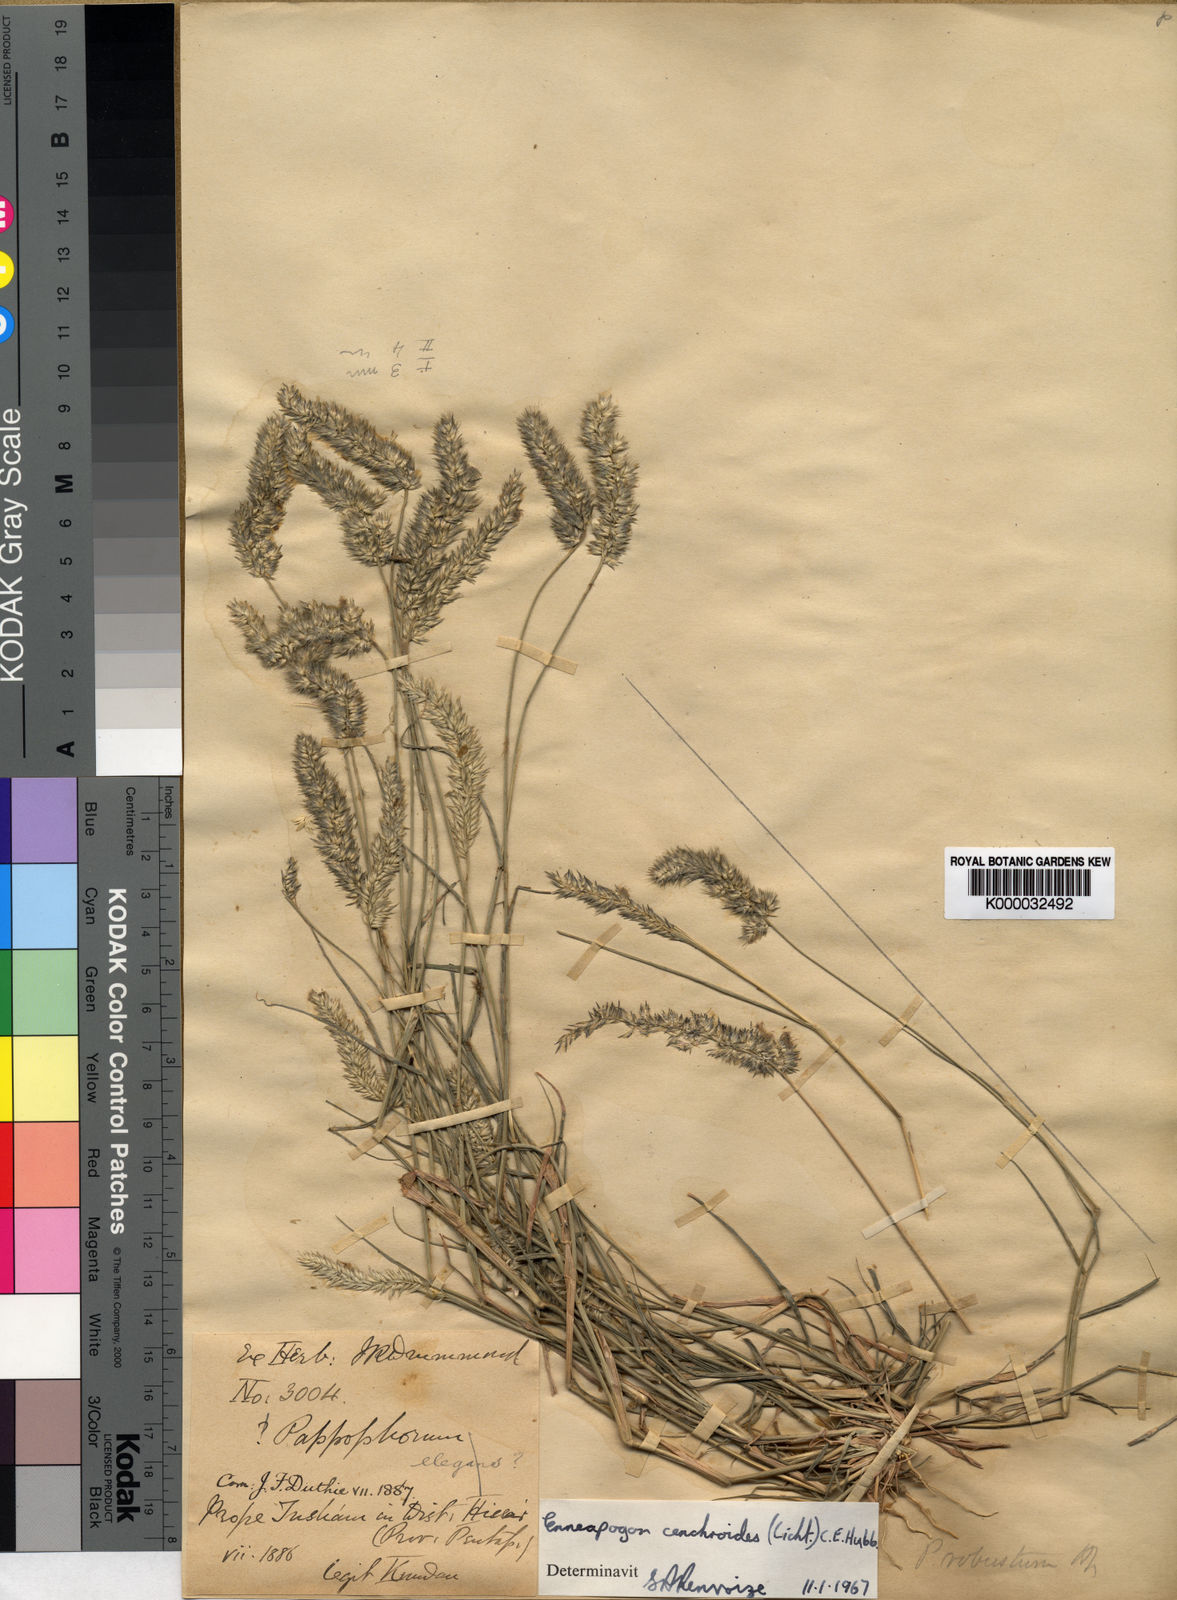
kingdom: Plantae
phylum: Tracheophyta
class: Liliopsida
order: Poales
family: Poaceae
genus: Enneapogon
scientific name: Enneapogon cenchroides
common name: Soft feather pappusgrass
